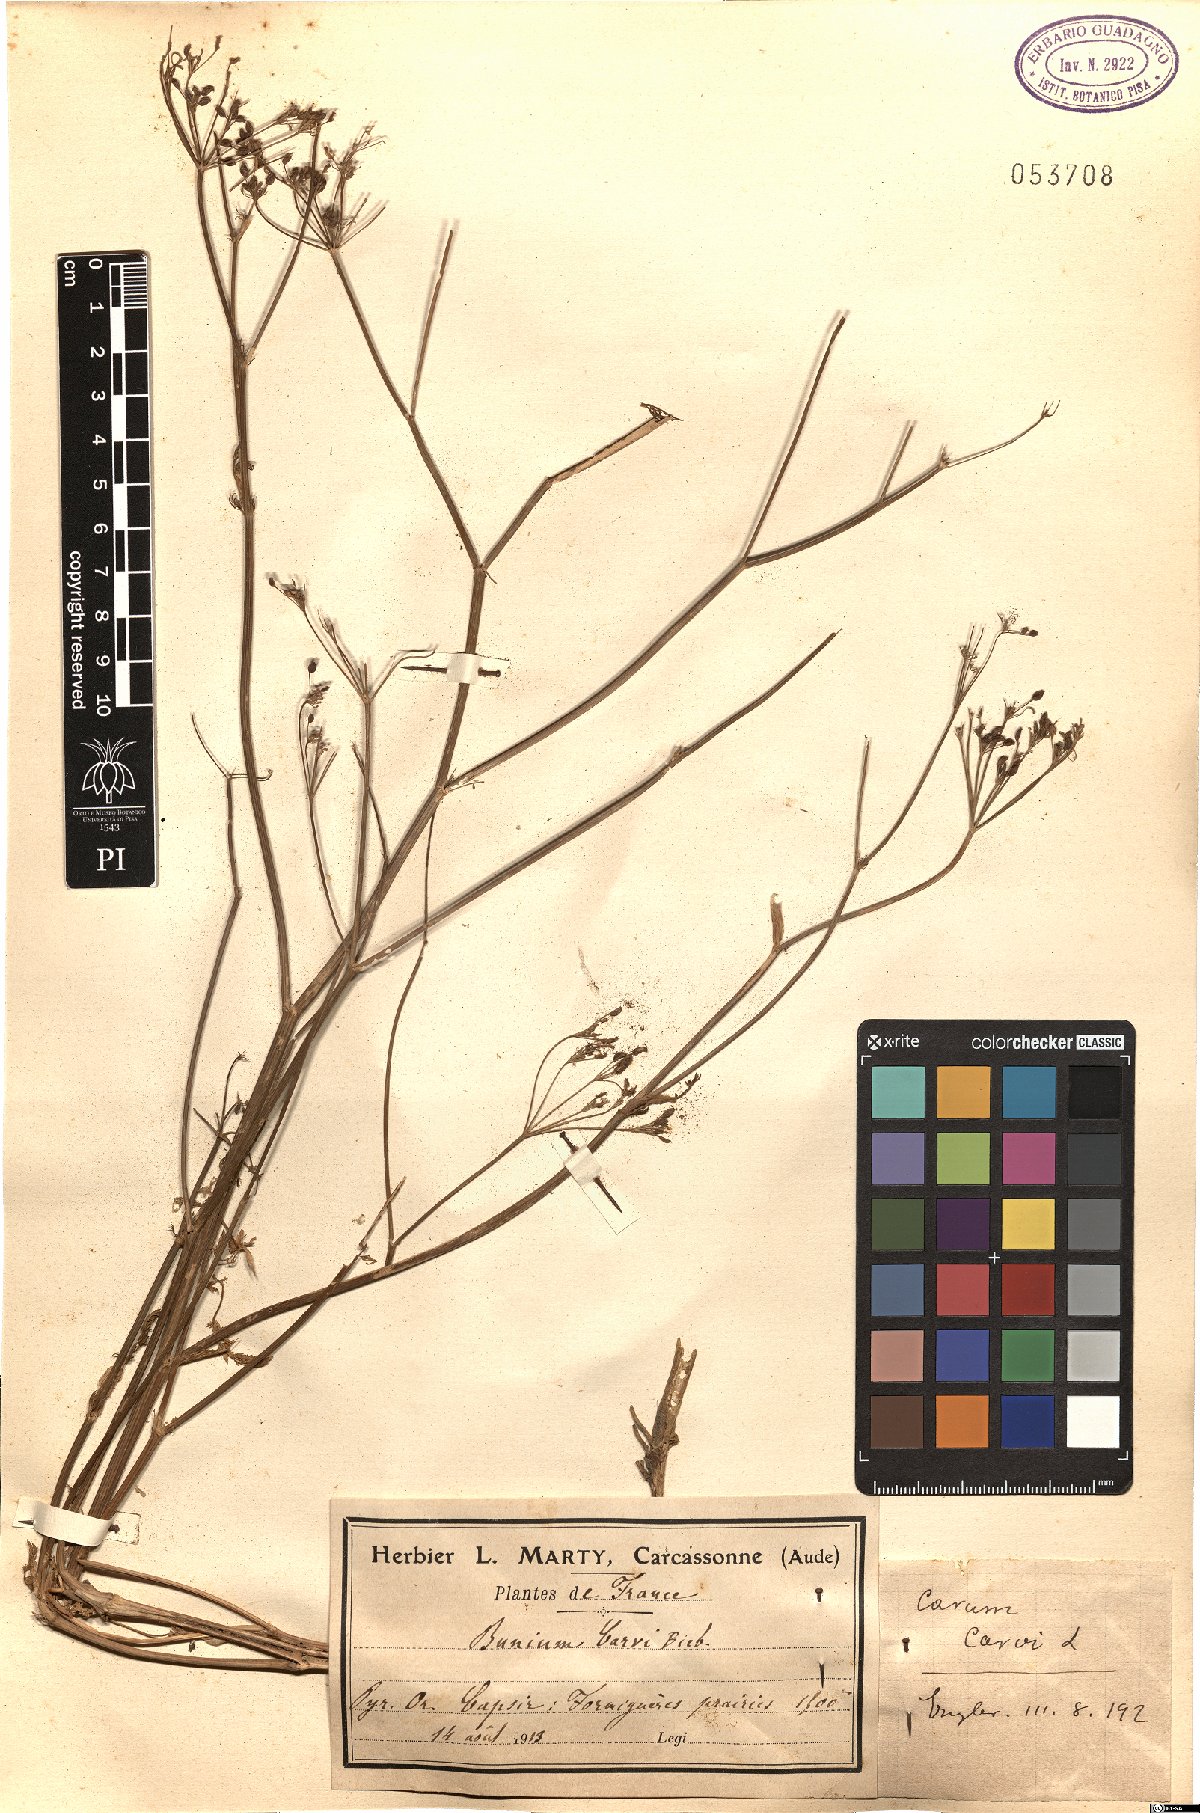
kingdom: Plantae
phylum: Tracheophyta
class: Magnoliopsida
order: Apiales
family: Apiaceae
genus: Carum
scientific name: Carum carvi
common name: Caraway
